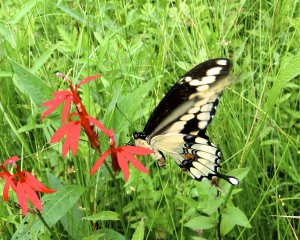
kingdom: Animalia
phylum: Arthropoda
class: Insecta
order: Lepidoptera
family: Papilionidae
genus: Papilio
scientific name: Papilio cresphontes
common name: Eastern Giant Swallowtail
